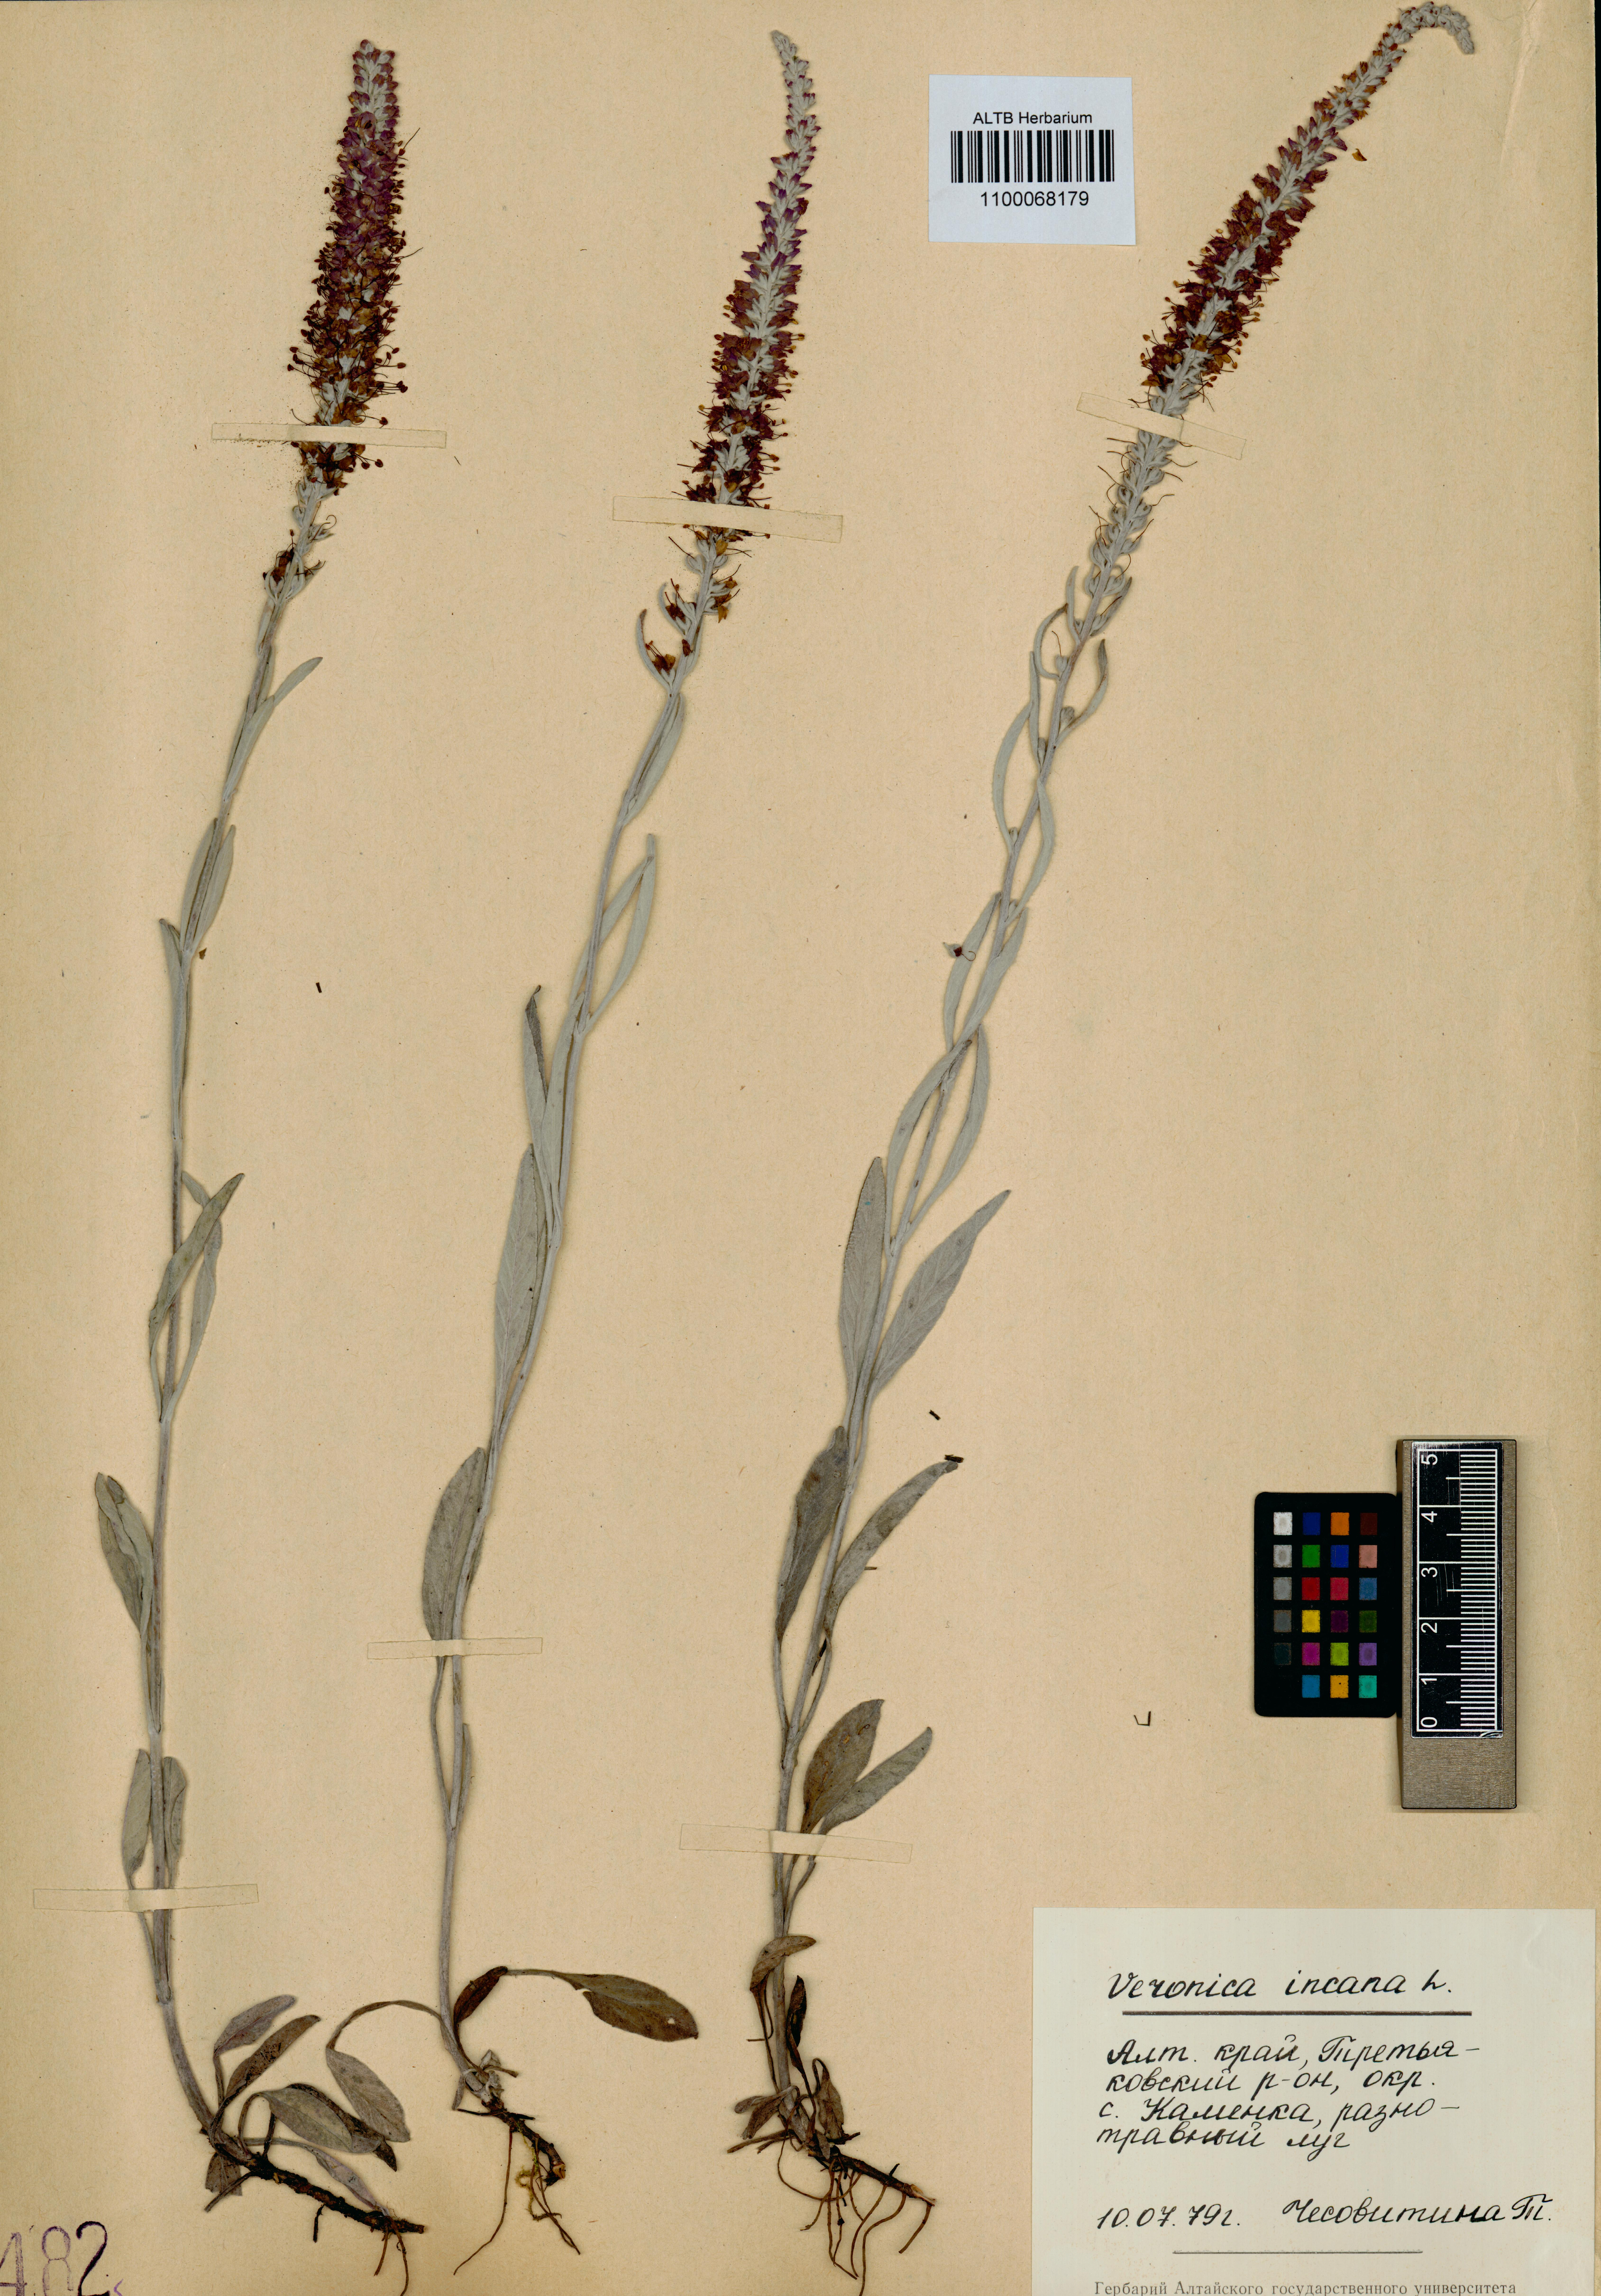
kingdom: Plantae
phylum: Tracheophyta
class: Magnoliopsida
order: Lamiales
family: Plantaginaceae
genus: Veronica
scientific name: Veronica incana
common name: Silver speedwell
